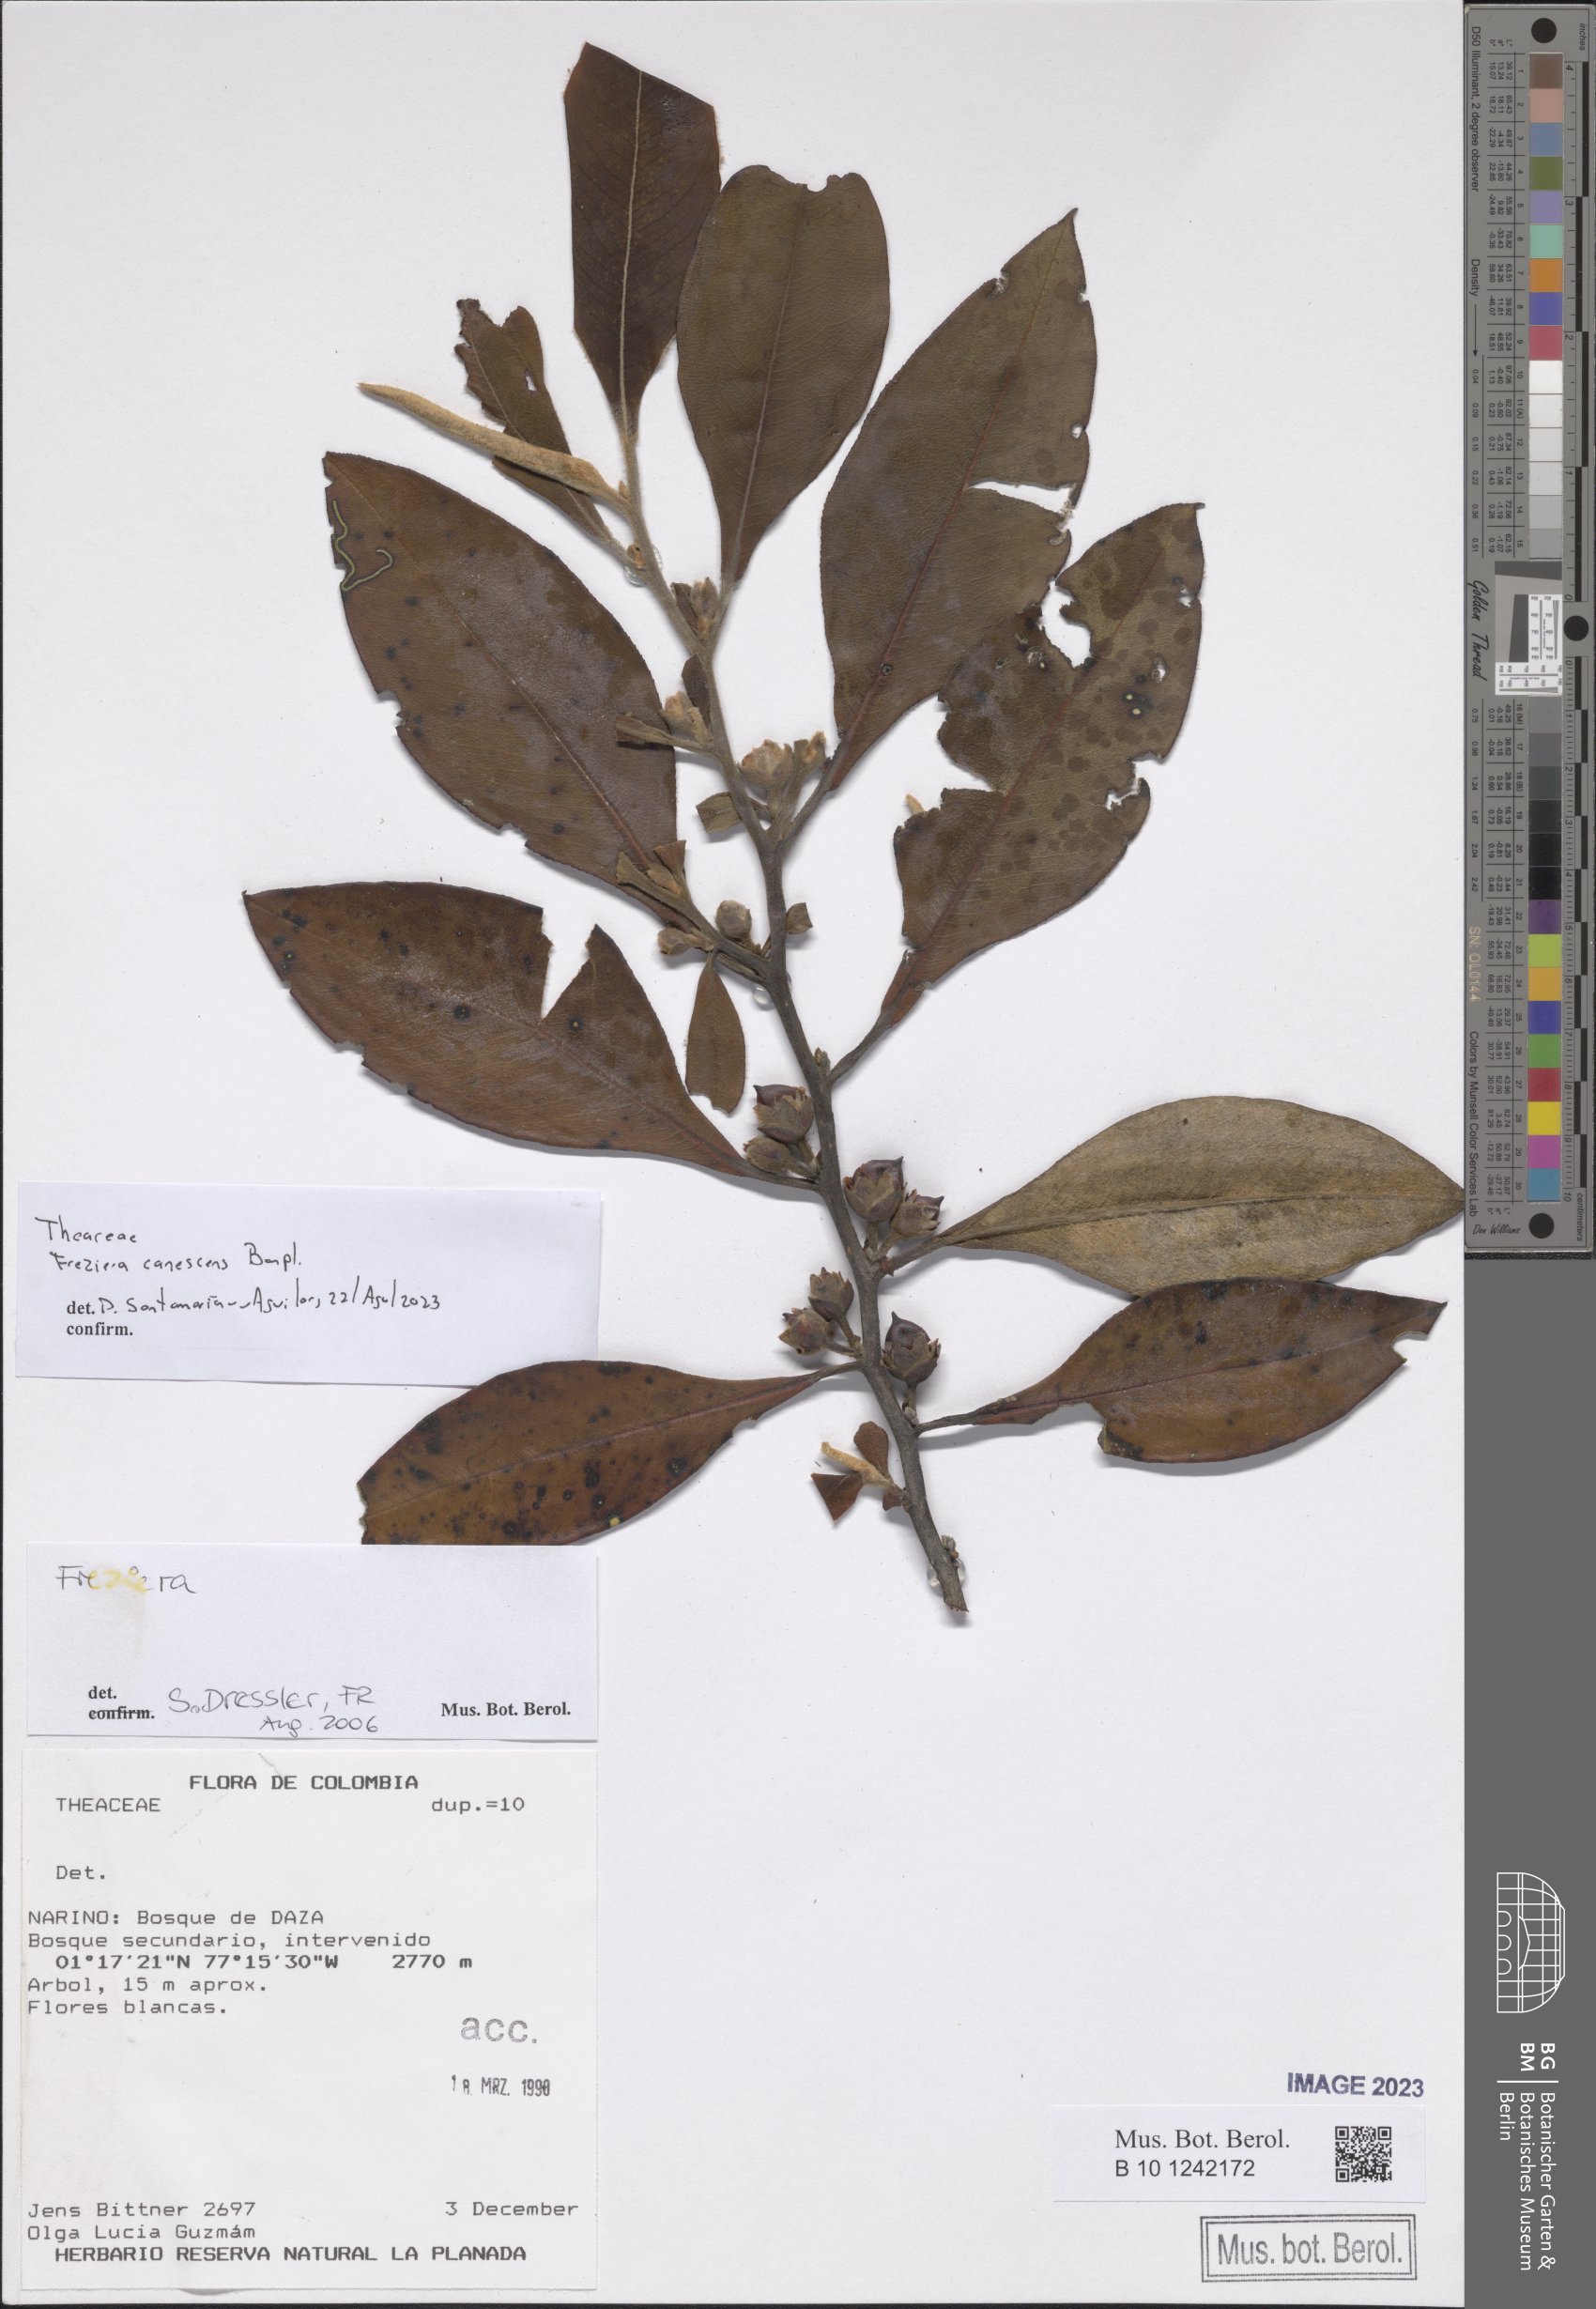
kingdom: Plantae
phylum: Tracheophyta
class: Magnoliopsida
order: Ericales
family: Pentaphylacaceae
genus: Freziera
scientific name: Freziera canescens
